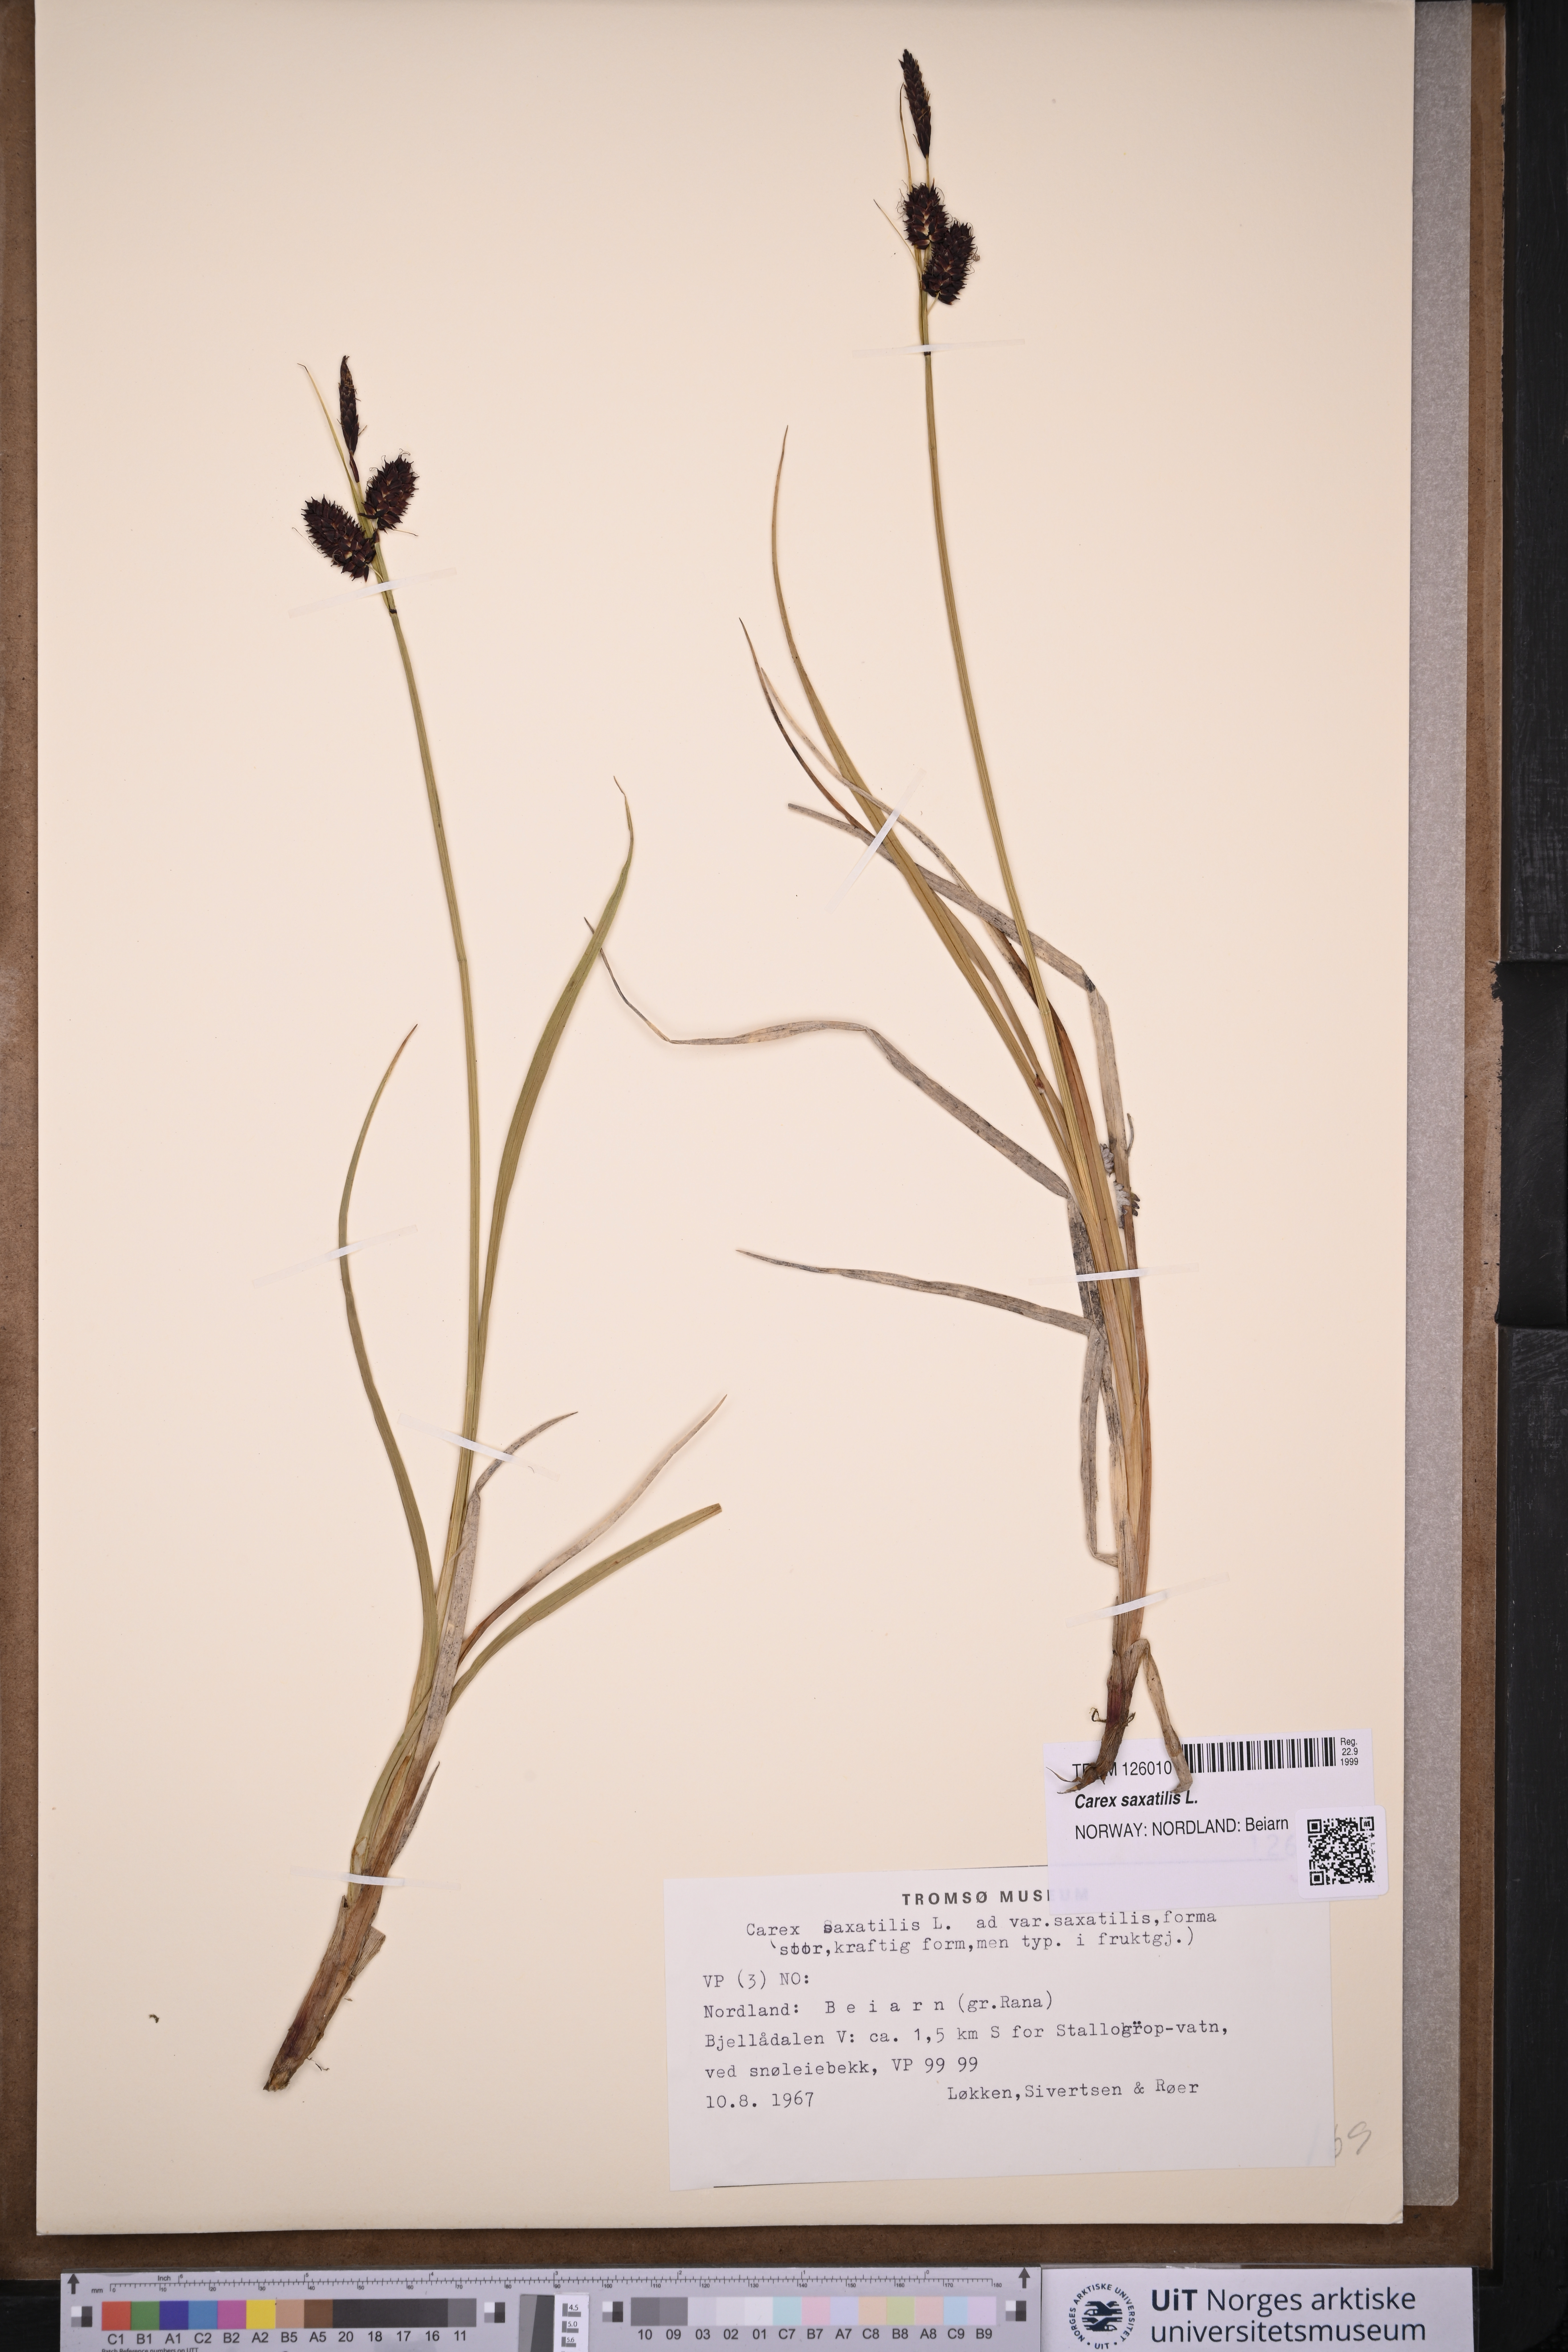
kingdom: Plantae
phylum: Tracheophyta
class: Liliopsida
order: Poales
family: Cyperaceae
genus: Carex
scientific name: Carex saxatilis
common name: Russet sedge
